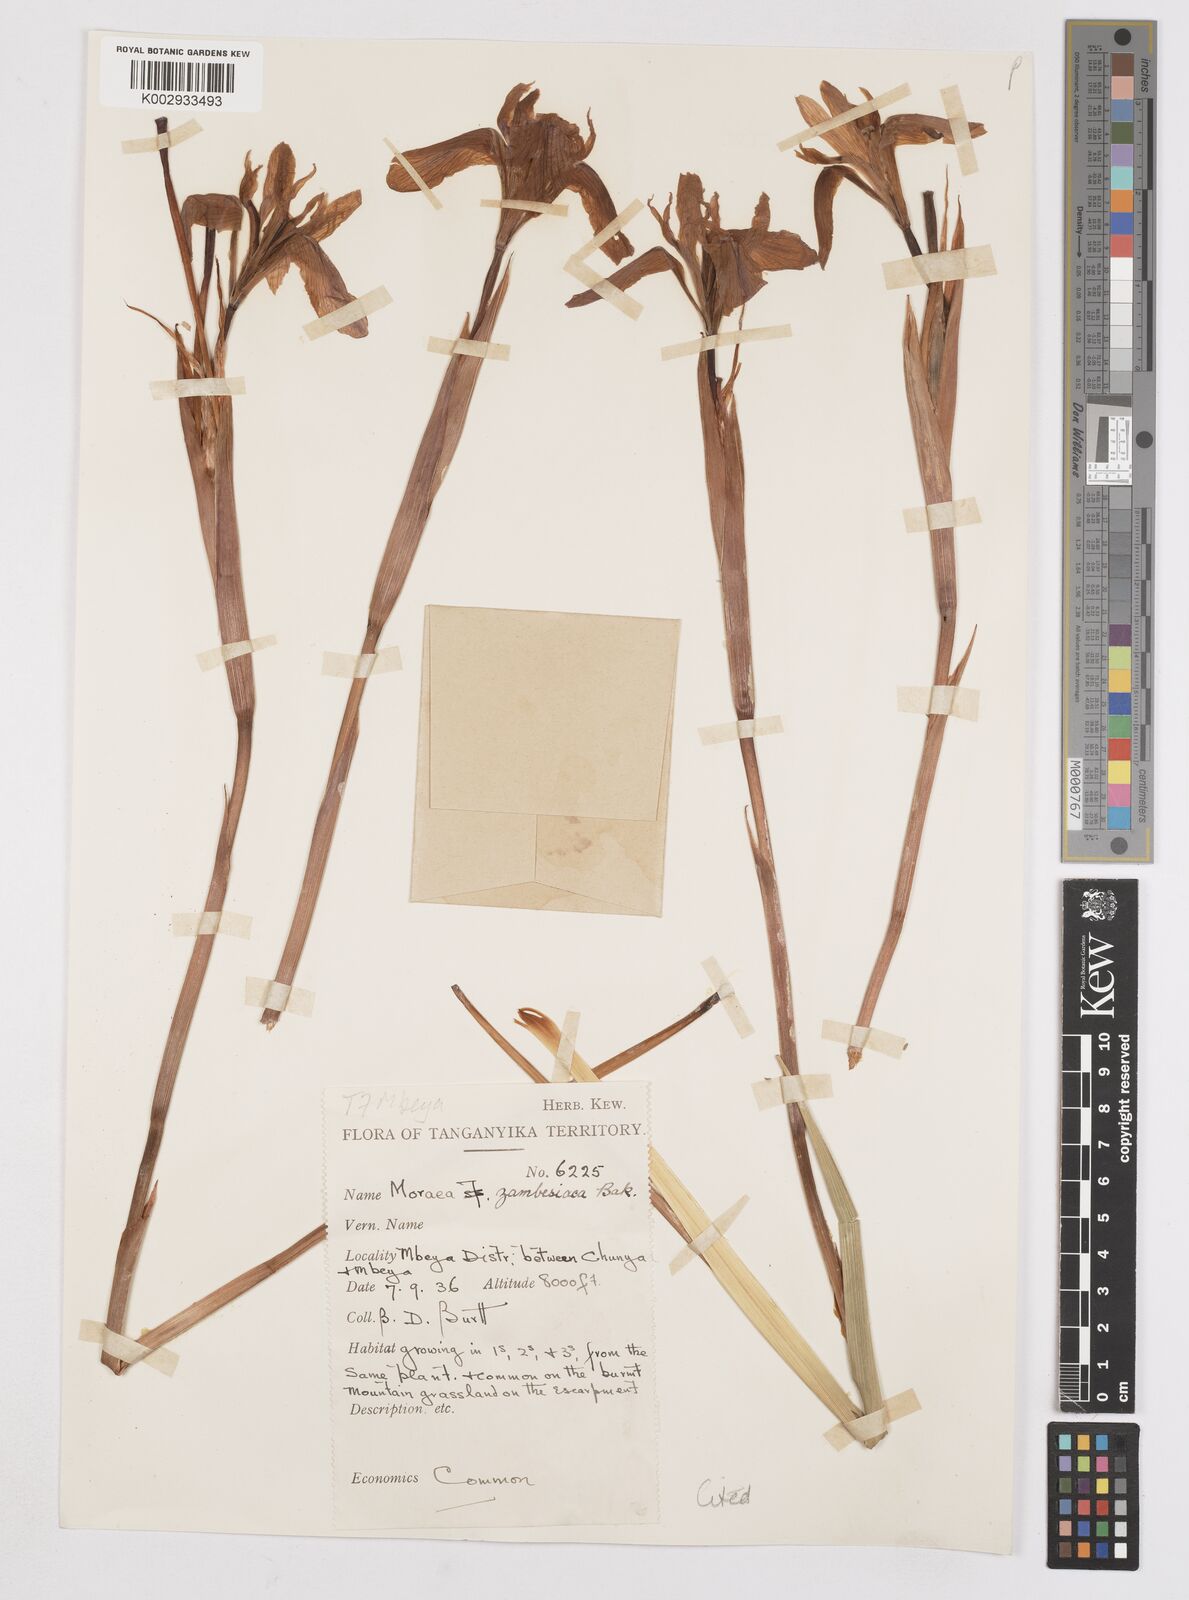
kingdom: Plantae
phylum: Tracheophyta
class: Liliopsida
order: Asparagales
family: Iridaceae
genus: Moraea
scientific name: Moraea schimperi
